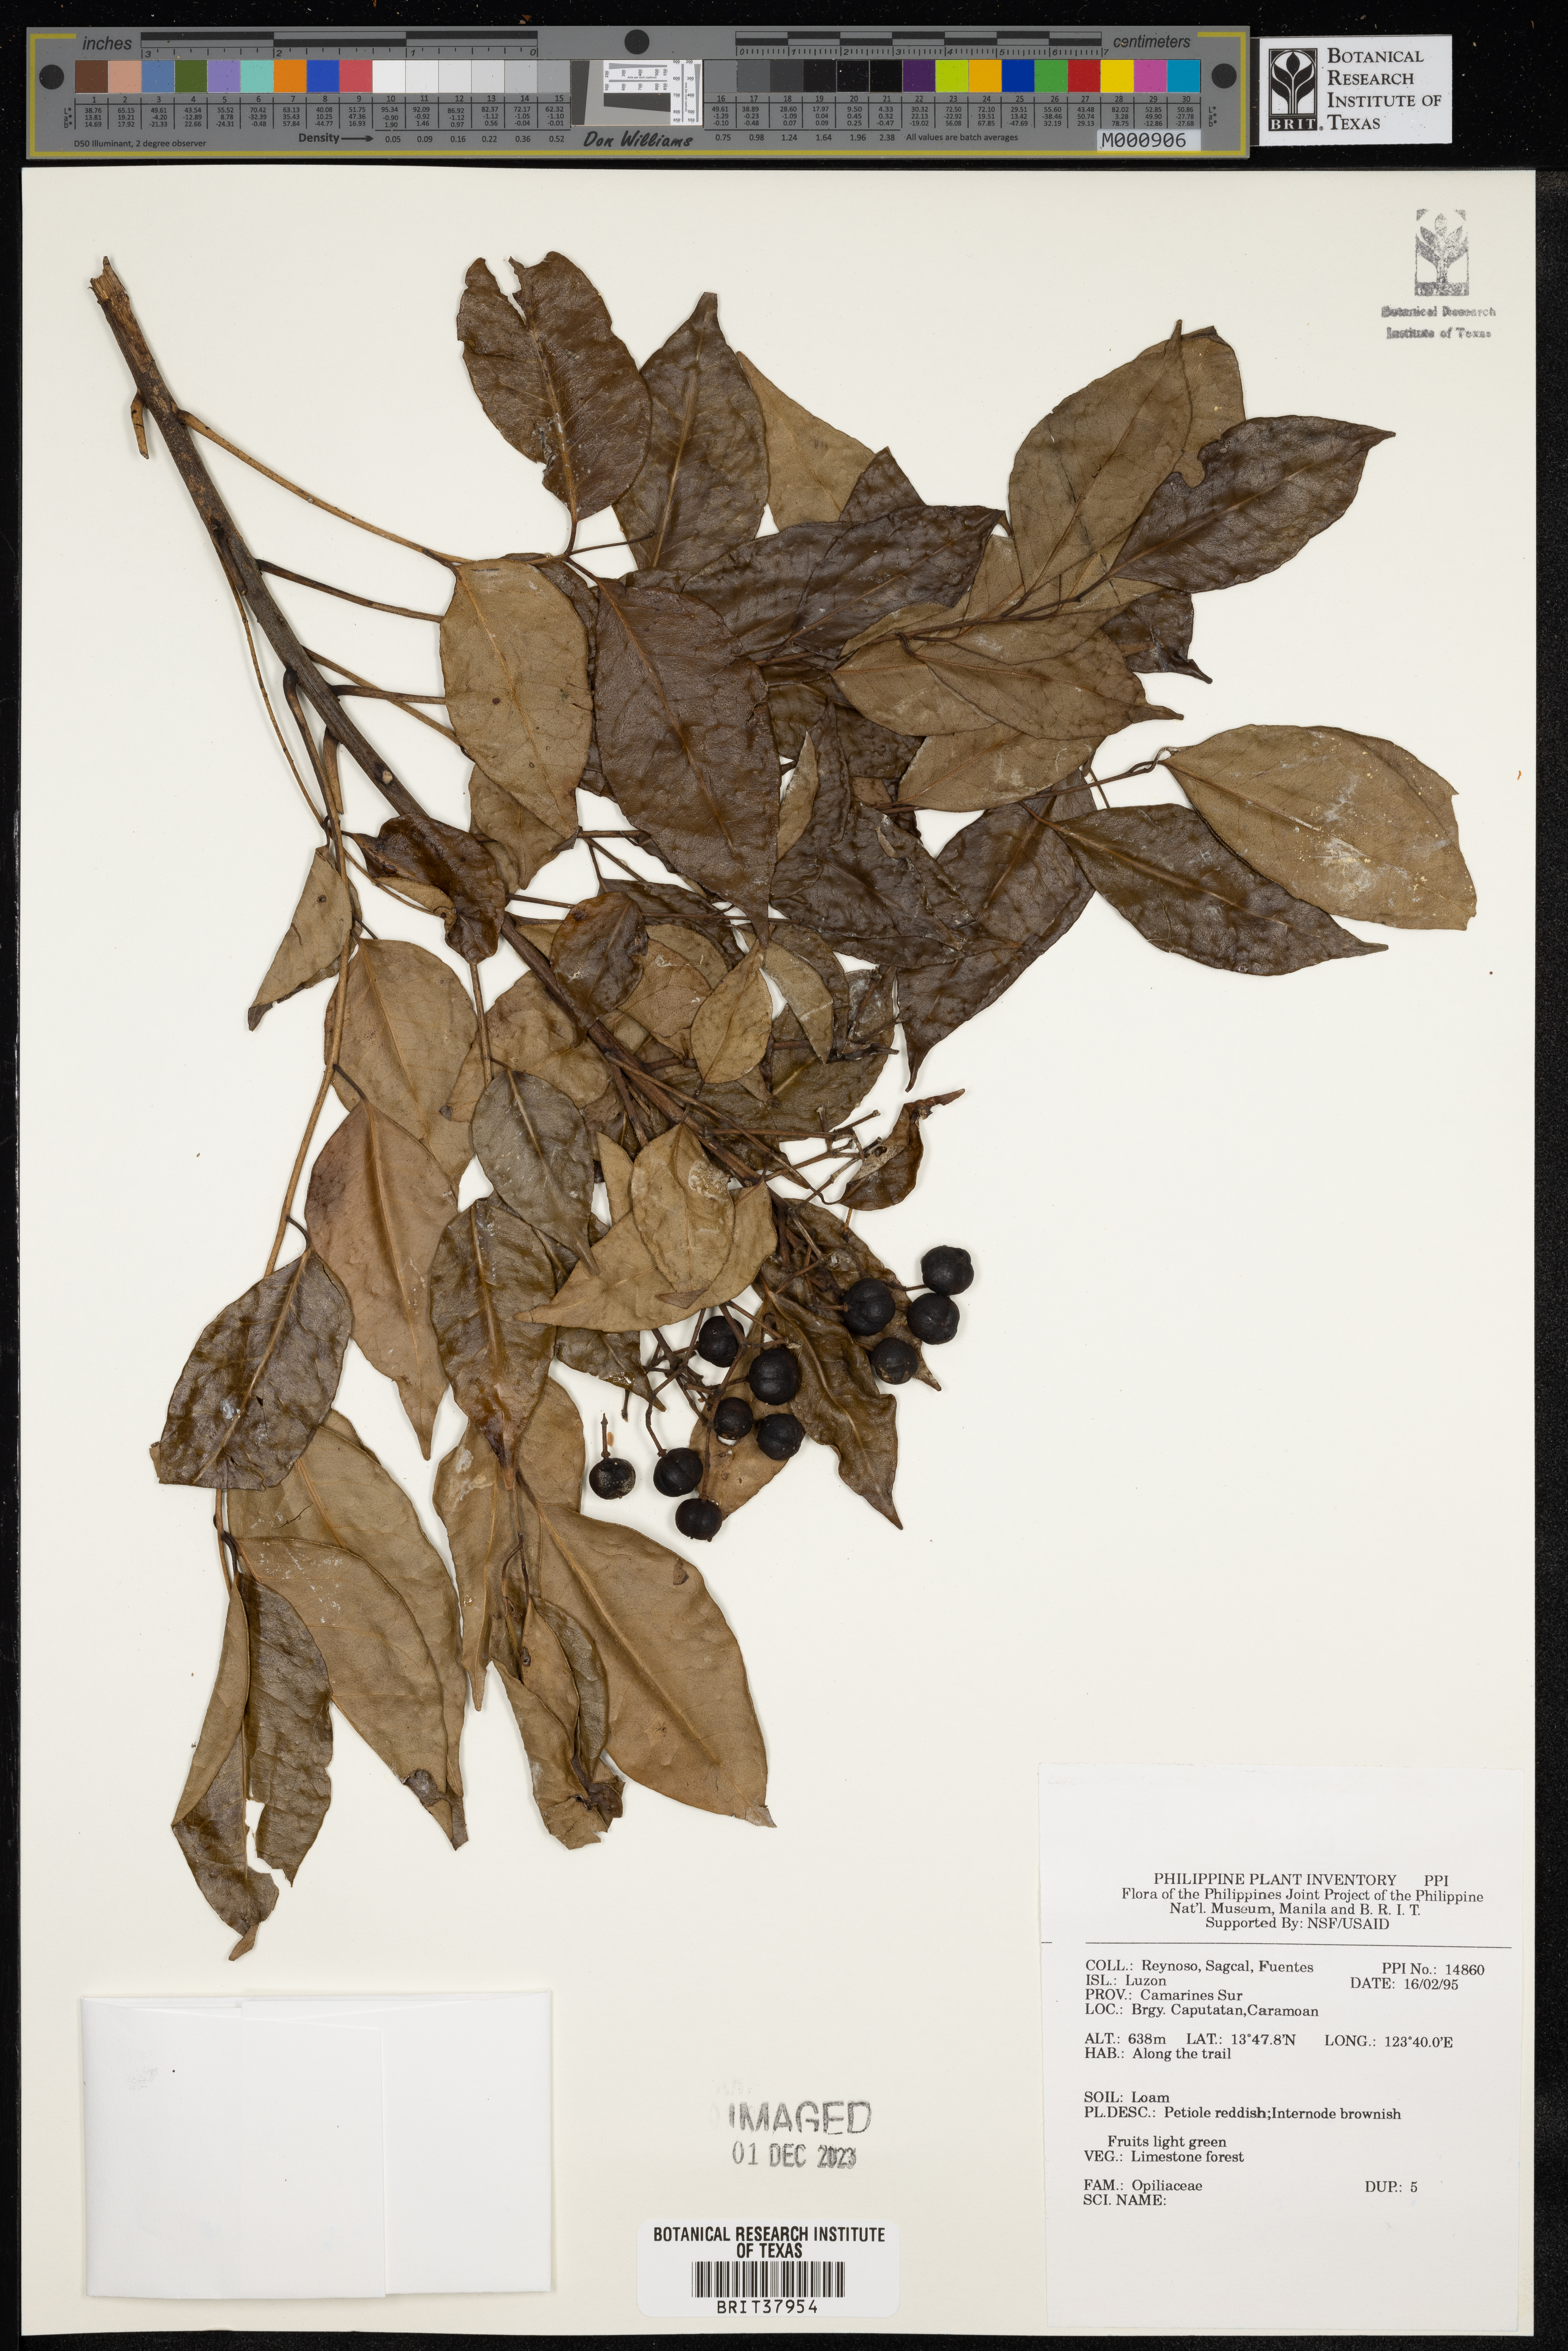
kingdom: Plantae
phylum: Tracheophyta
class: Magnoliopsida
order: Santalales
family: Opiliaceae
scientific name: Opiliaceae
